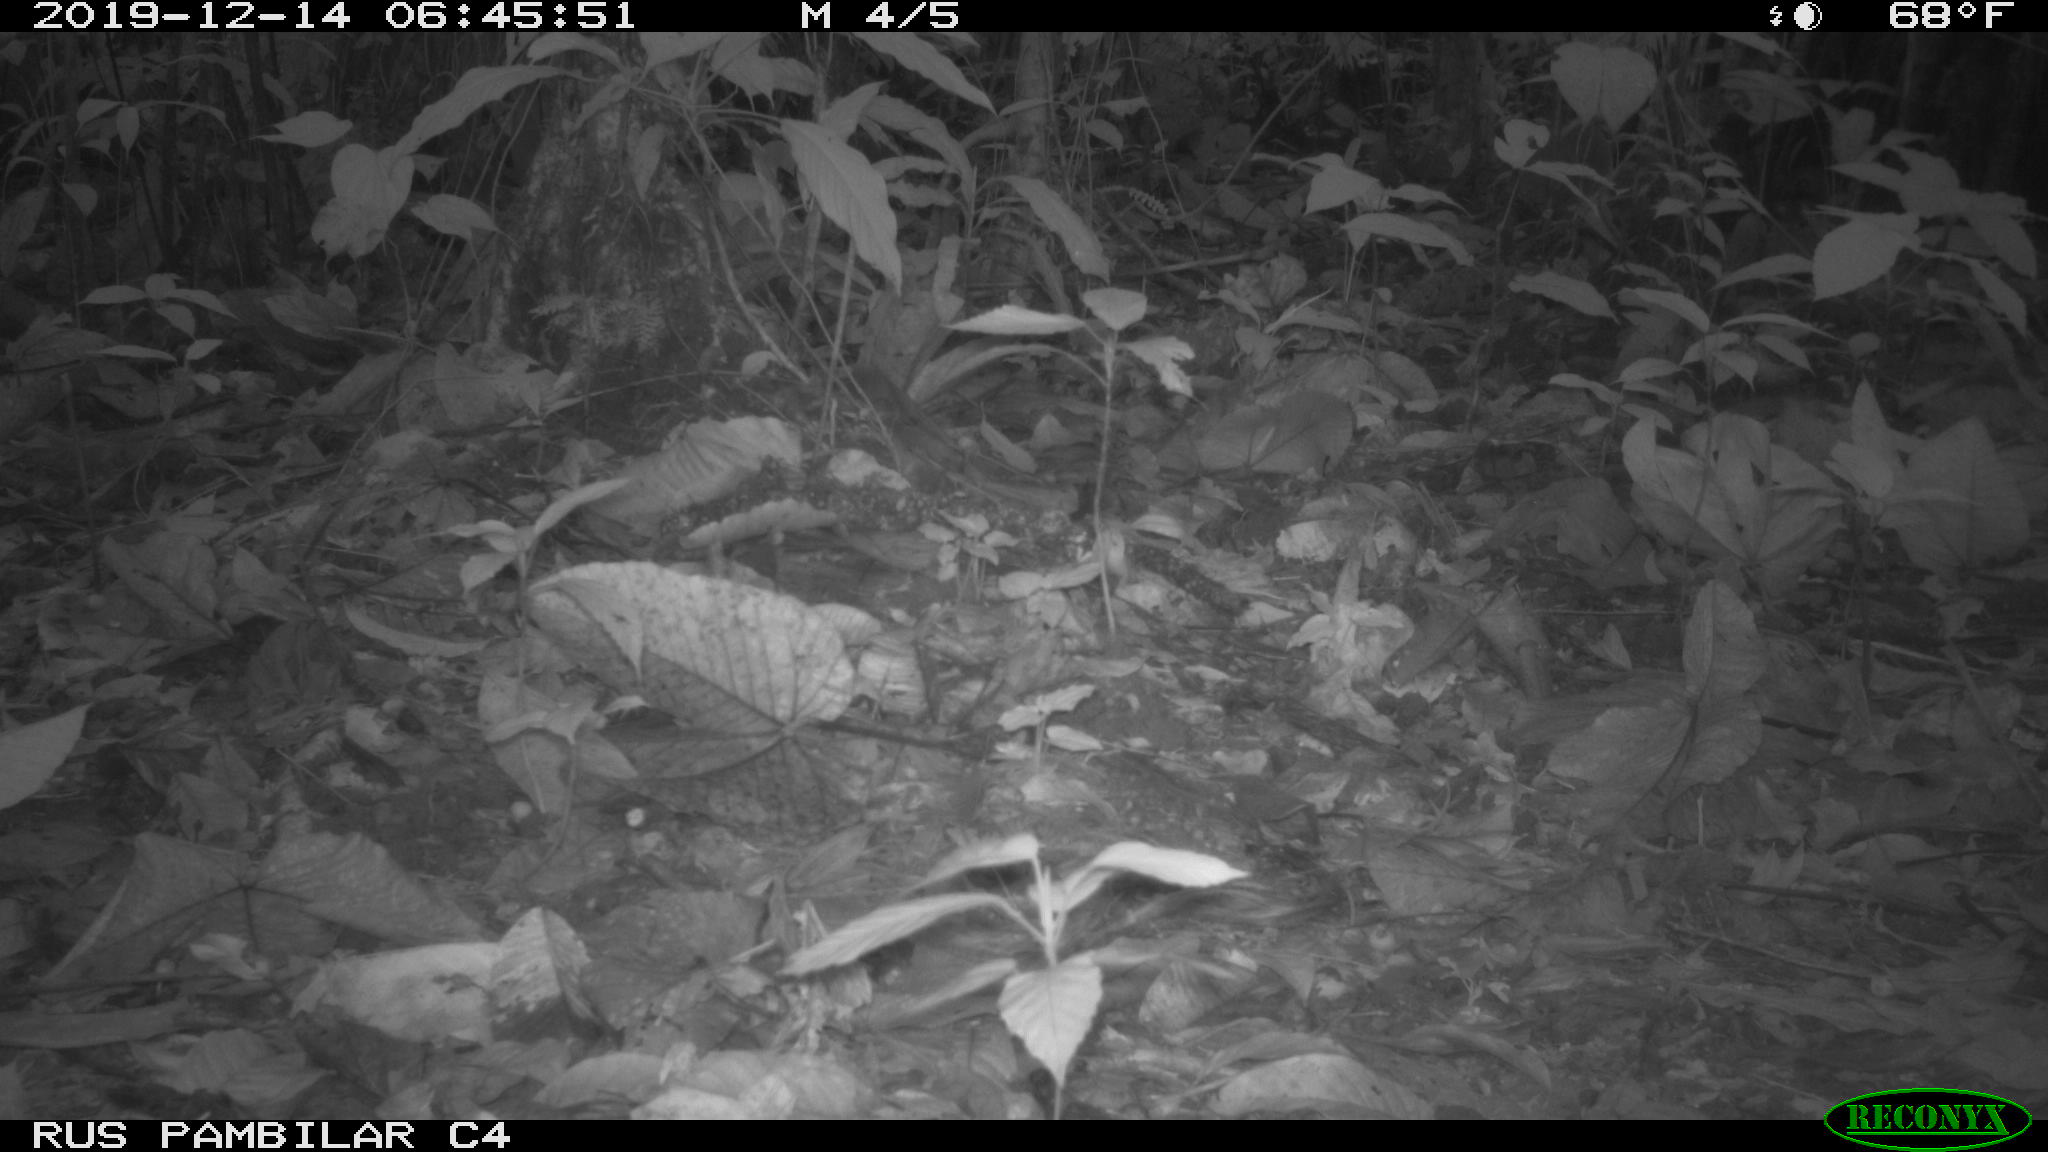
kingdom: Animalia
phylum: Chordata
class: Aves
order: Columbiformes
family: Columbidae
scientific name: Columbidae
